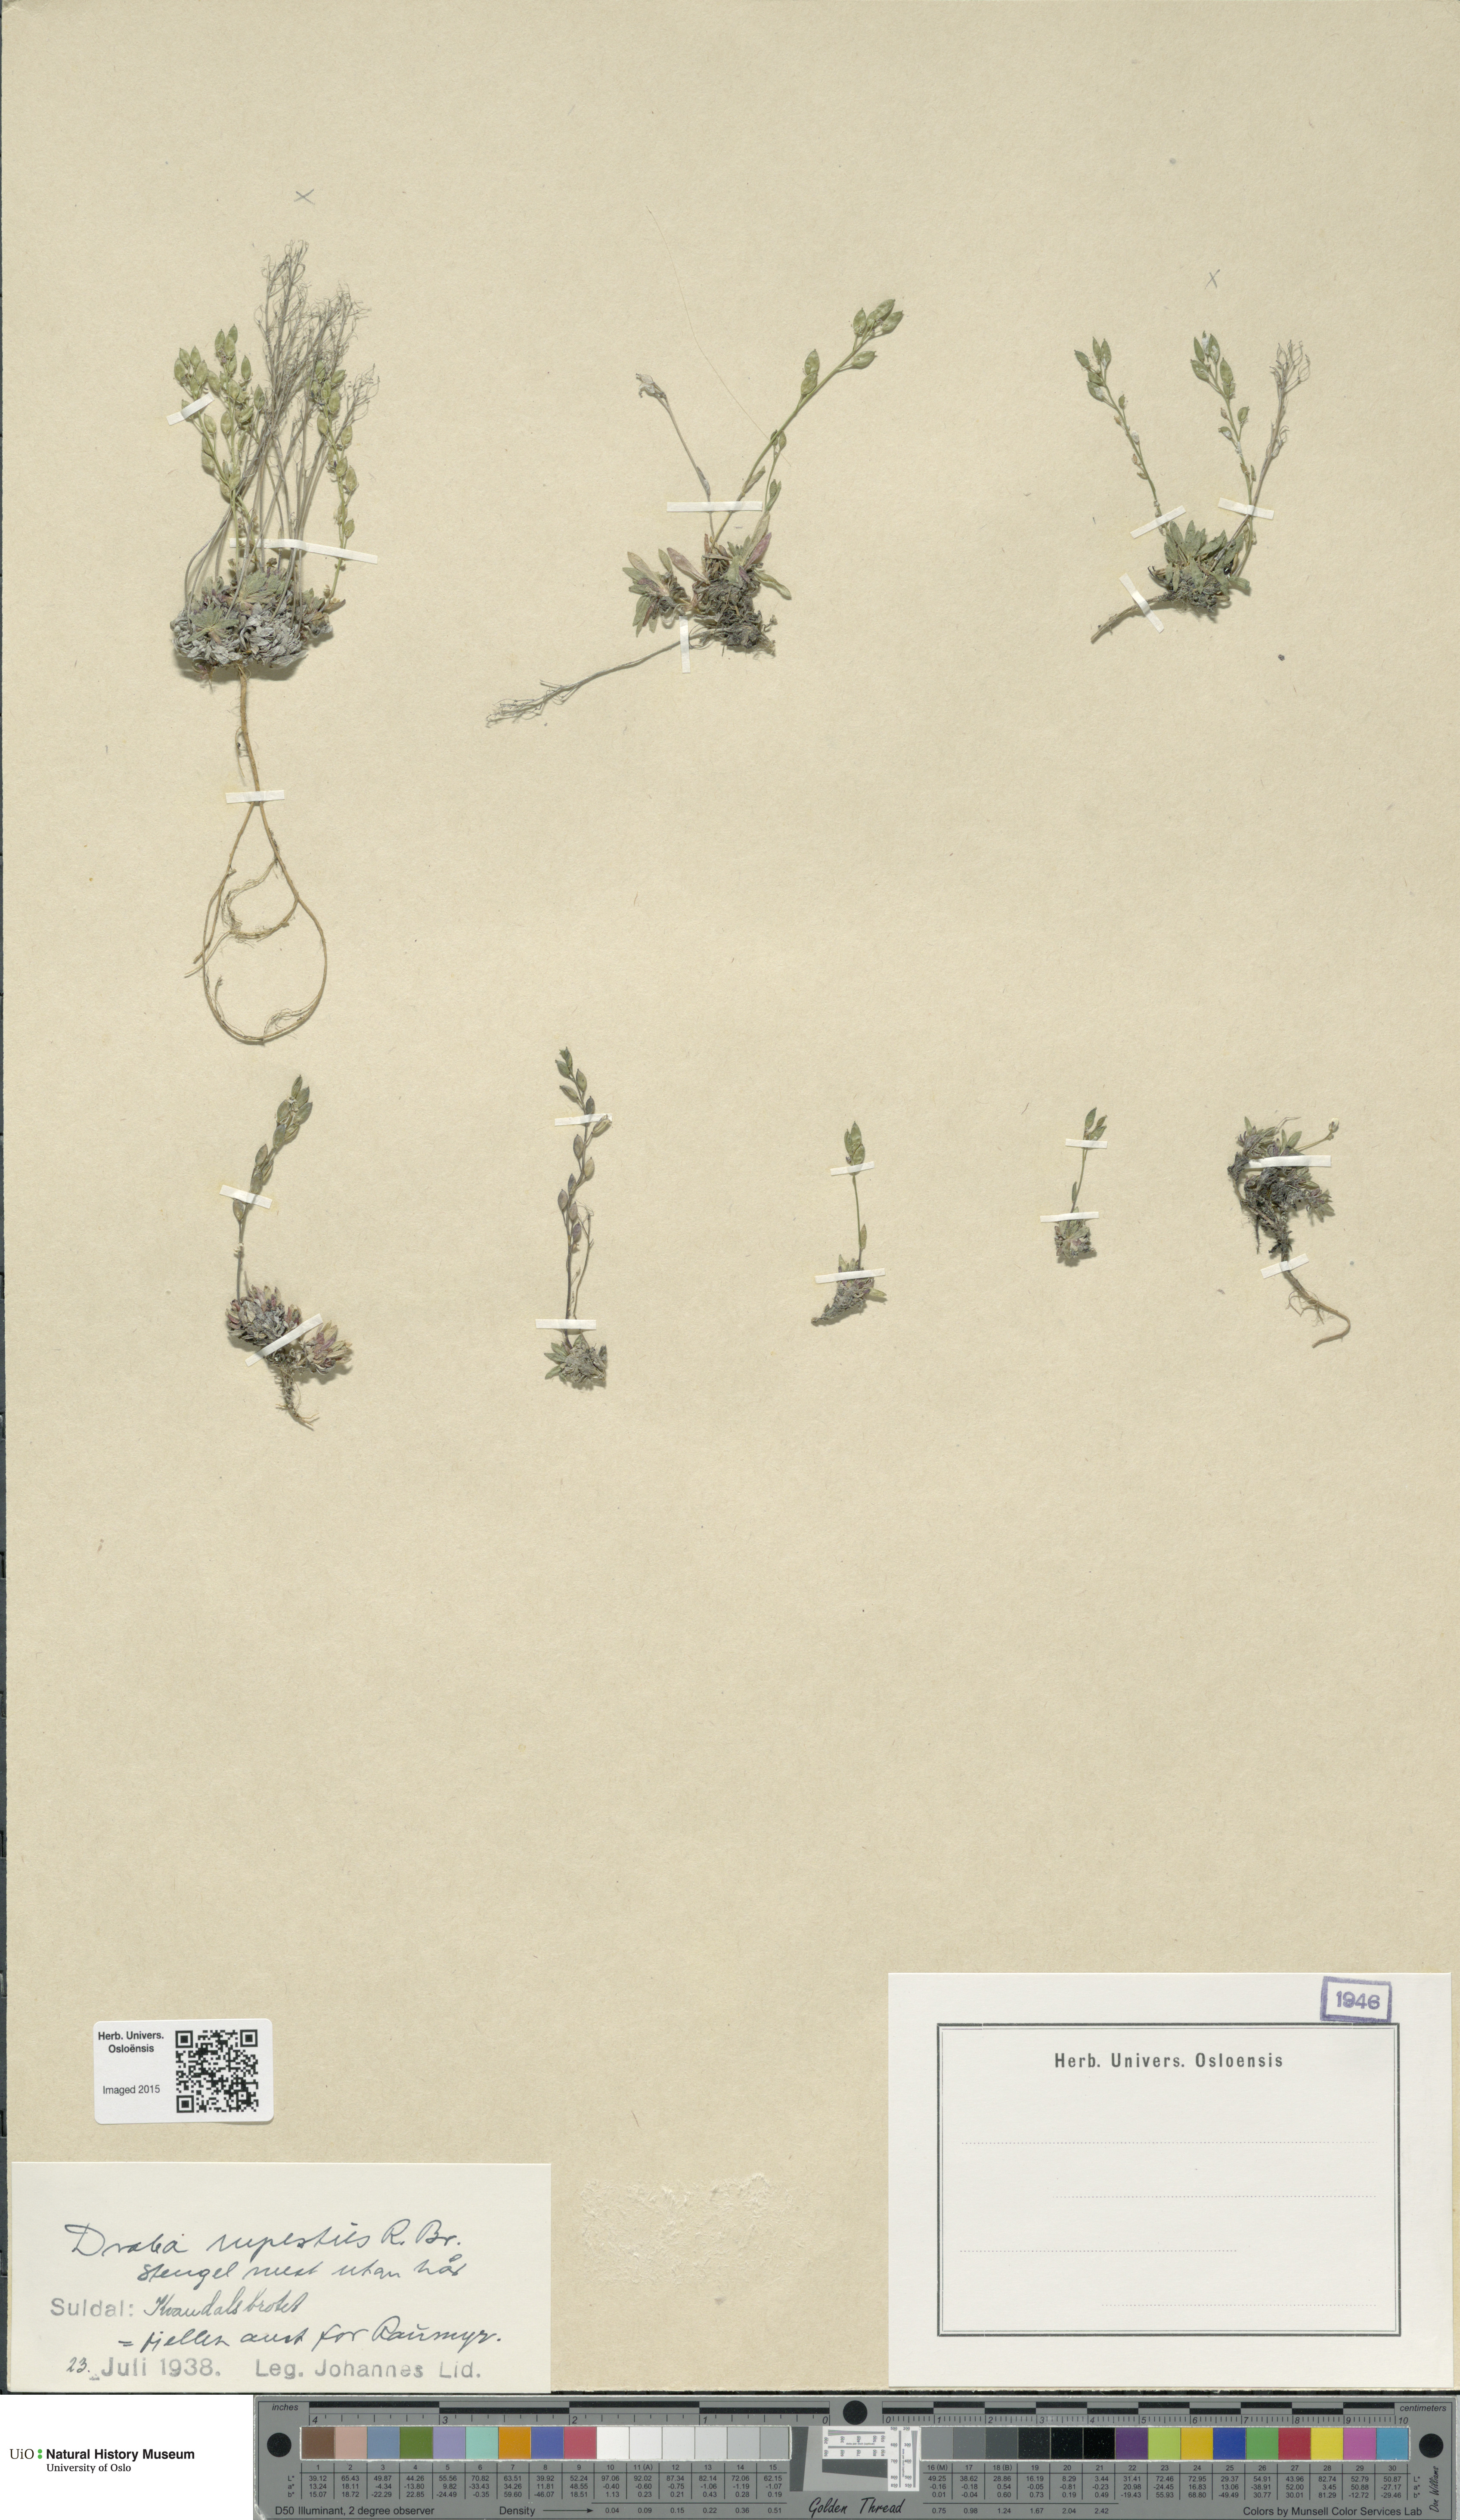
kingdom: Plantae
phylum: Tracheophyta
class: Magnoliopsida
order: Brassicales
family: Brassicaceae
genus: Draba
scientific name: Draba norvegica
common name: Rock whitlowgrass
